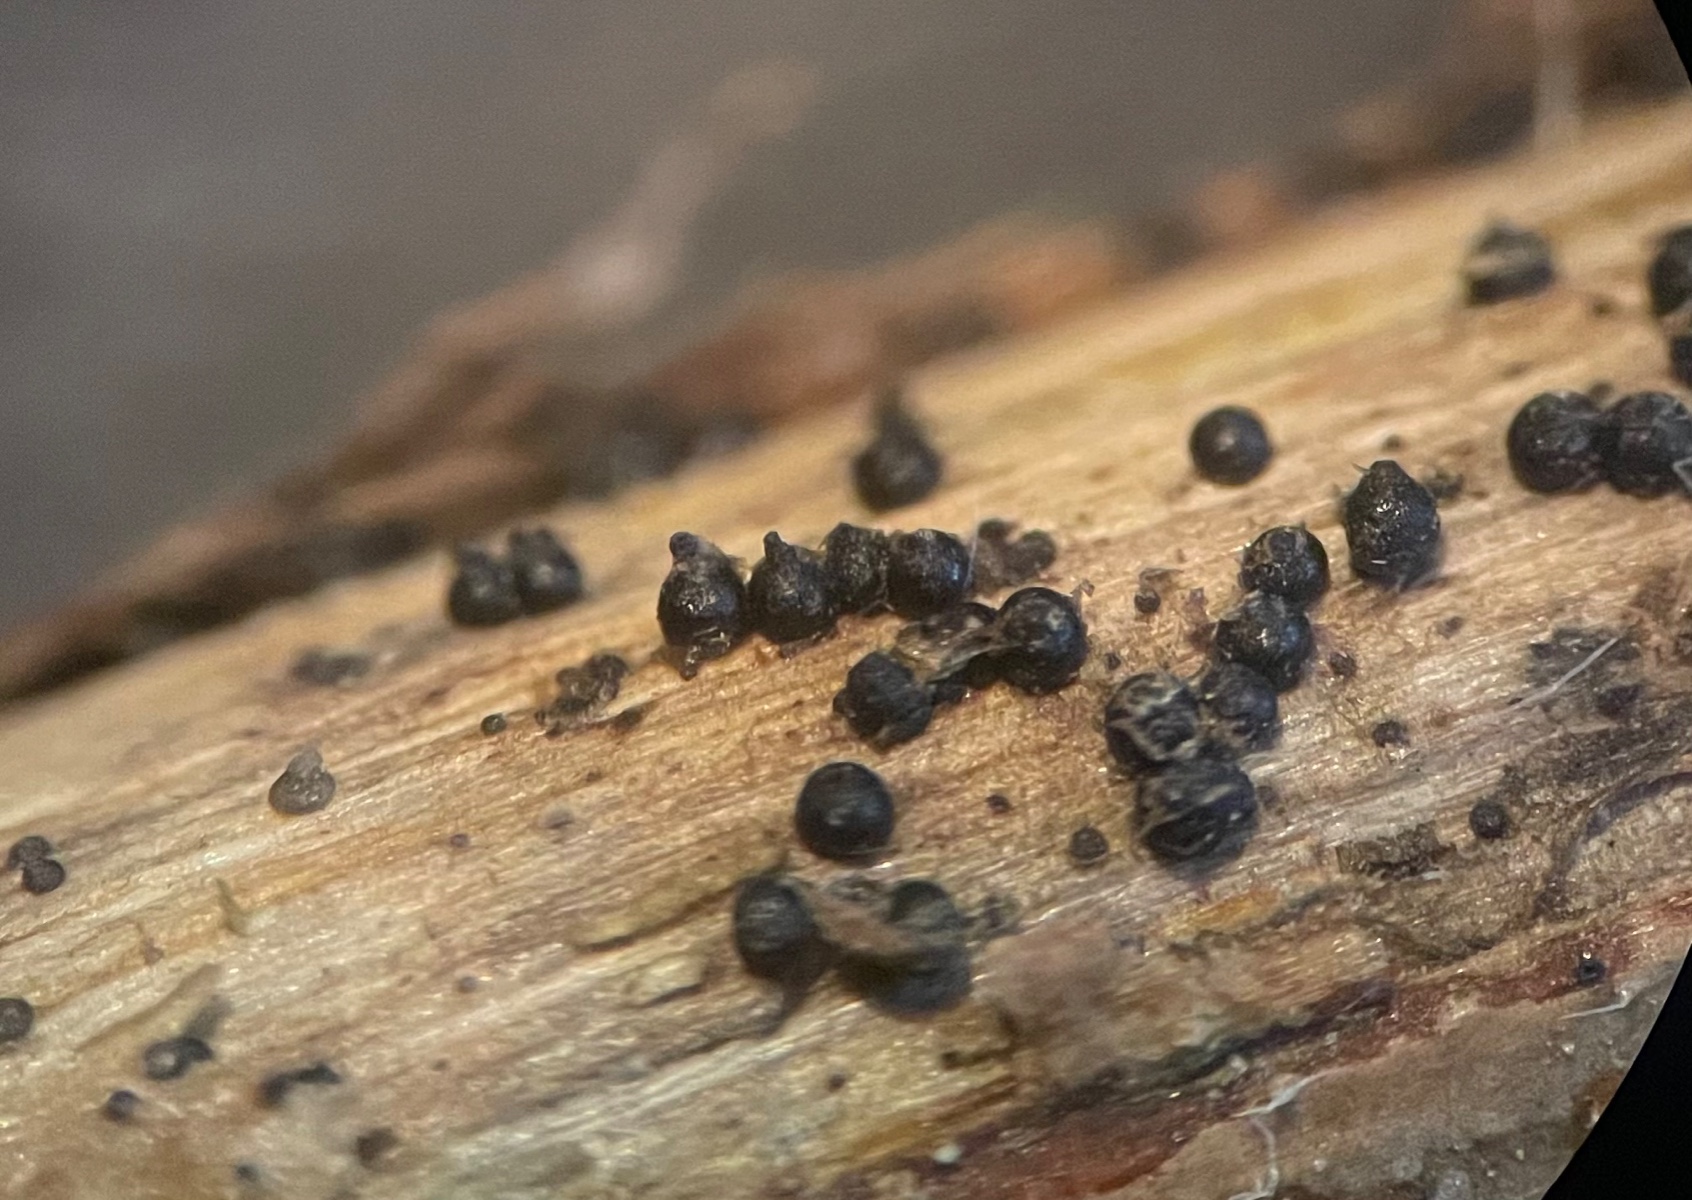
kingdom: Fungi
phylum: Ascomycota
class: Dothideomycetes
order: Pleosporales
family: Leptosphaeriaceae
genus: Leptosphaeria
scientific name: Leptosphaeria
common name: kulkegle
